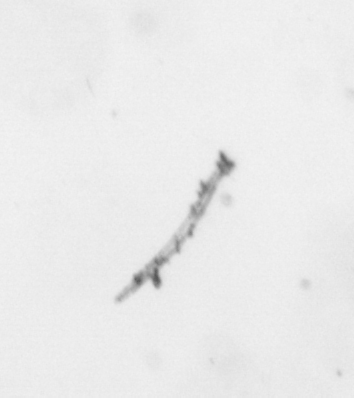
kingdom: Chromista
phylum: Ochrophyta
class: Bacillariophyceae
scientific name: Bacillariophyceae
